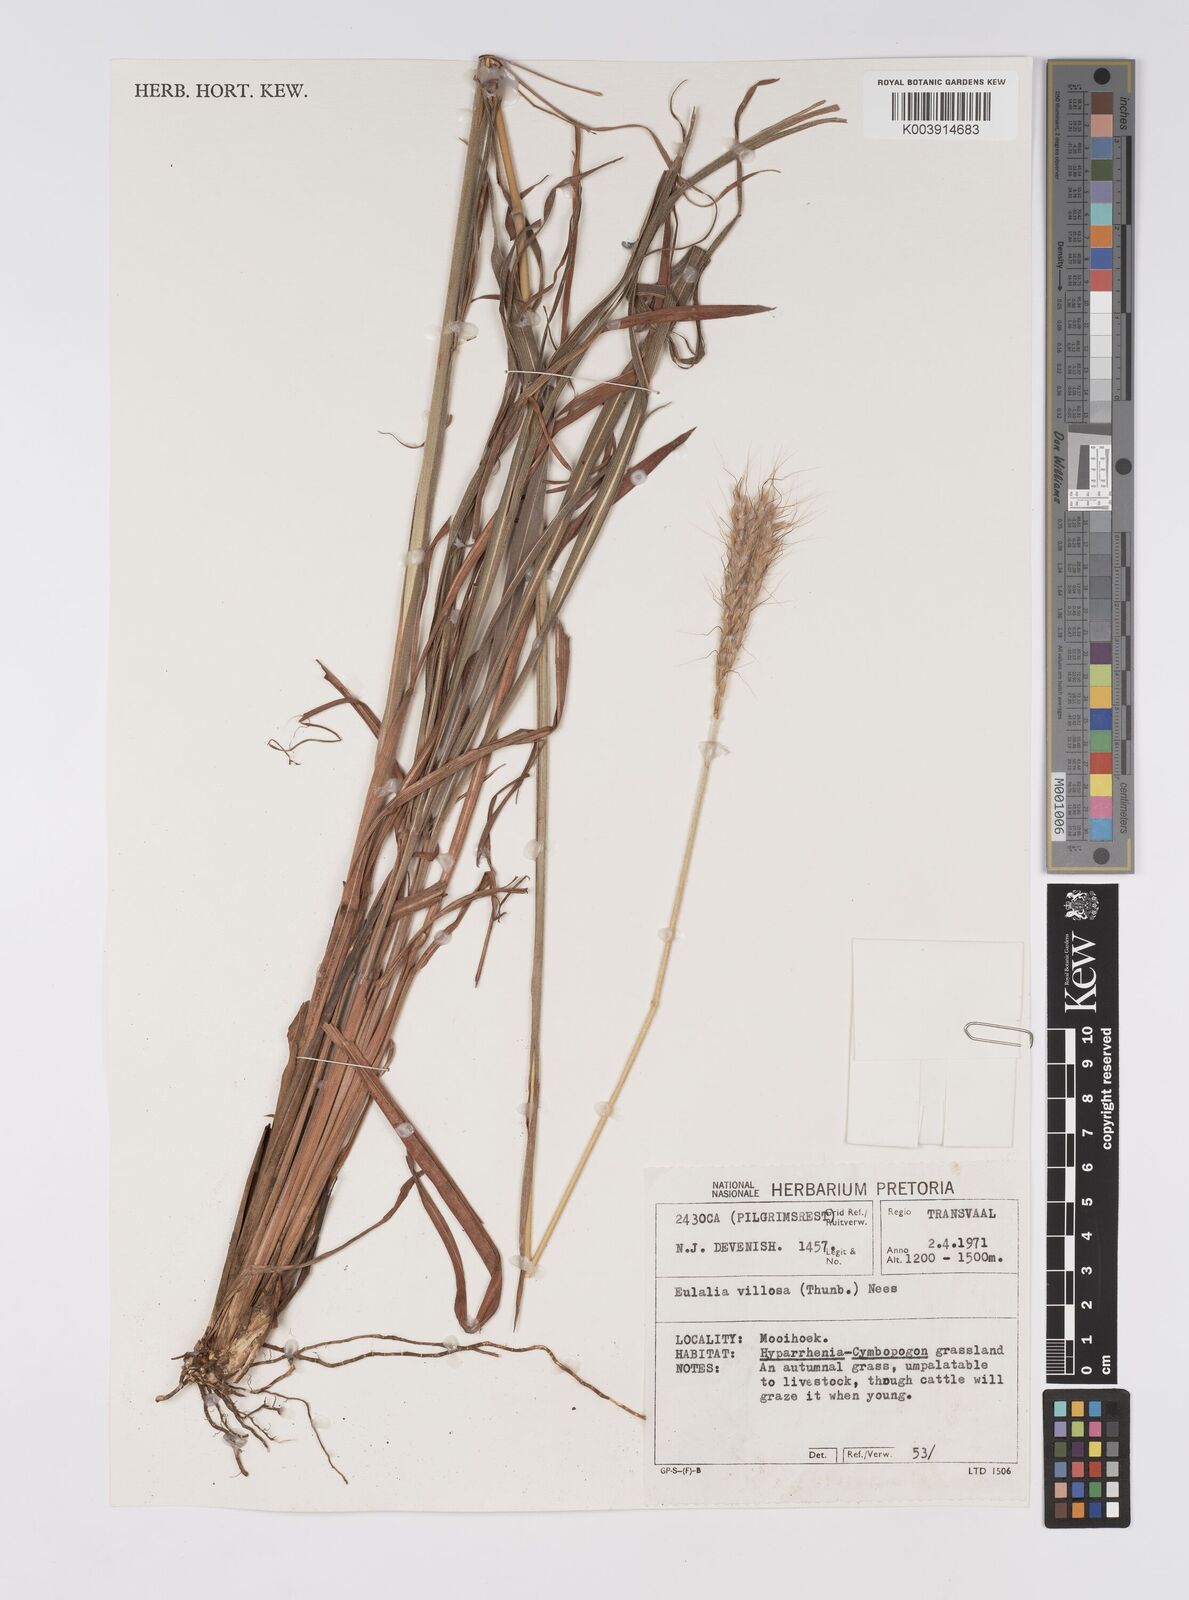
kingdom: Plantae
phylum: Tracheophyta
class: Liliopsida
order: Poales
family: Poaceae
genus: Eulalia
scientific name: Eulalia villosa
